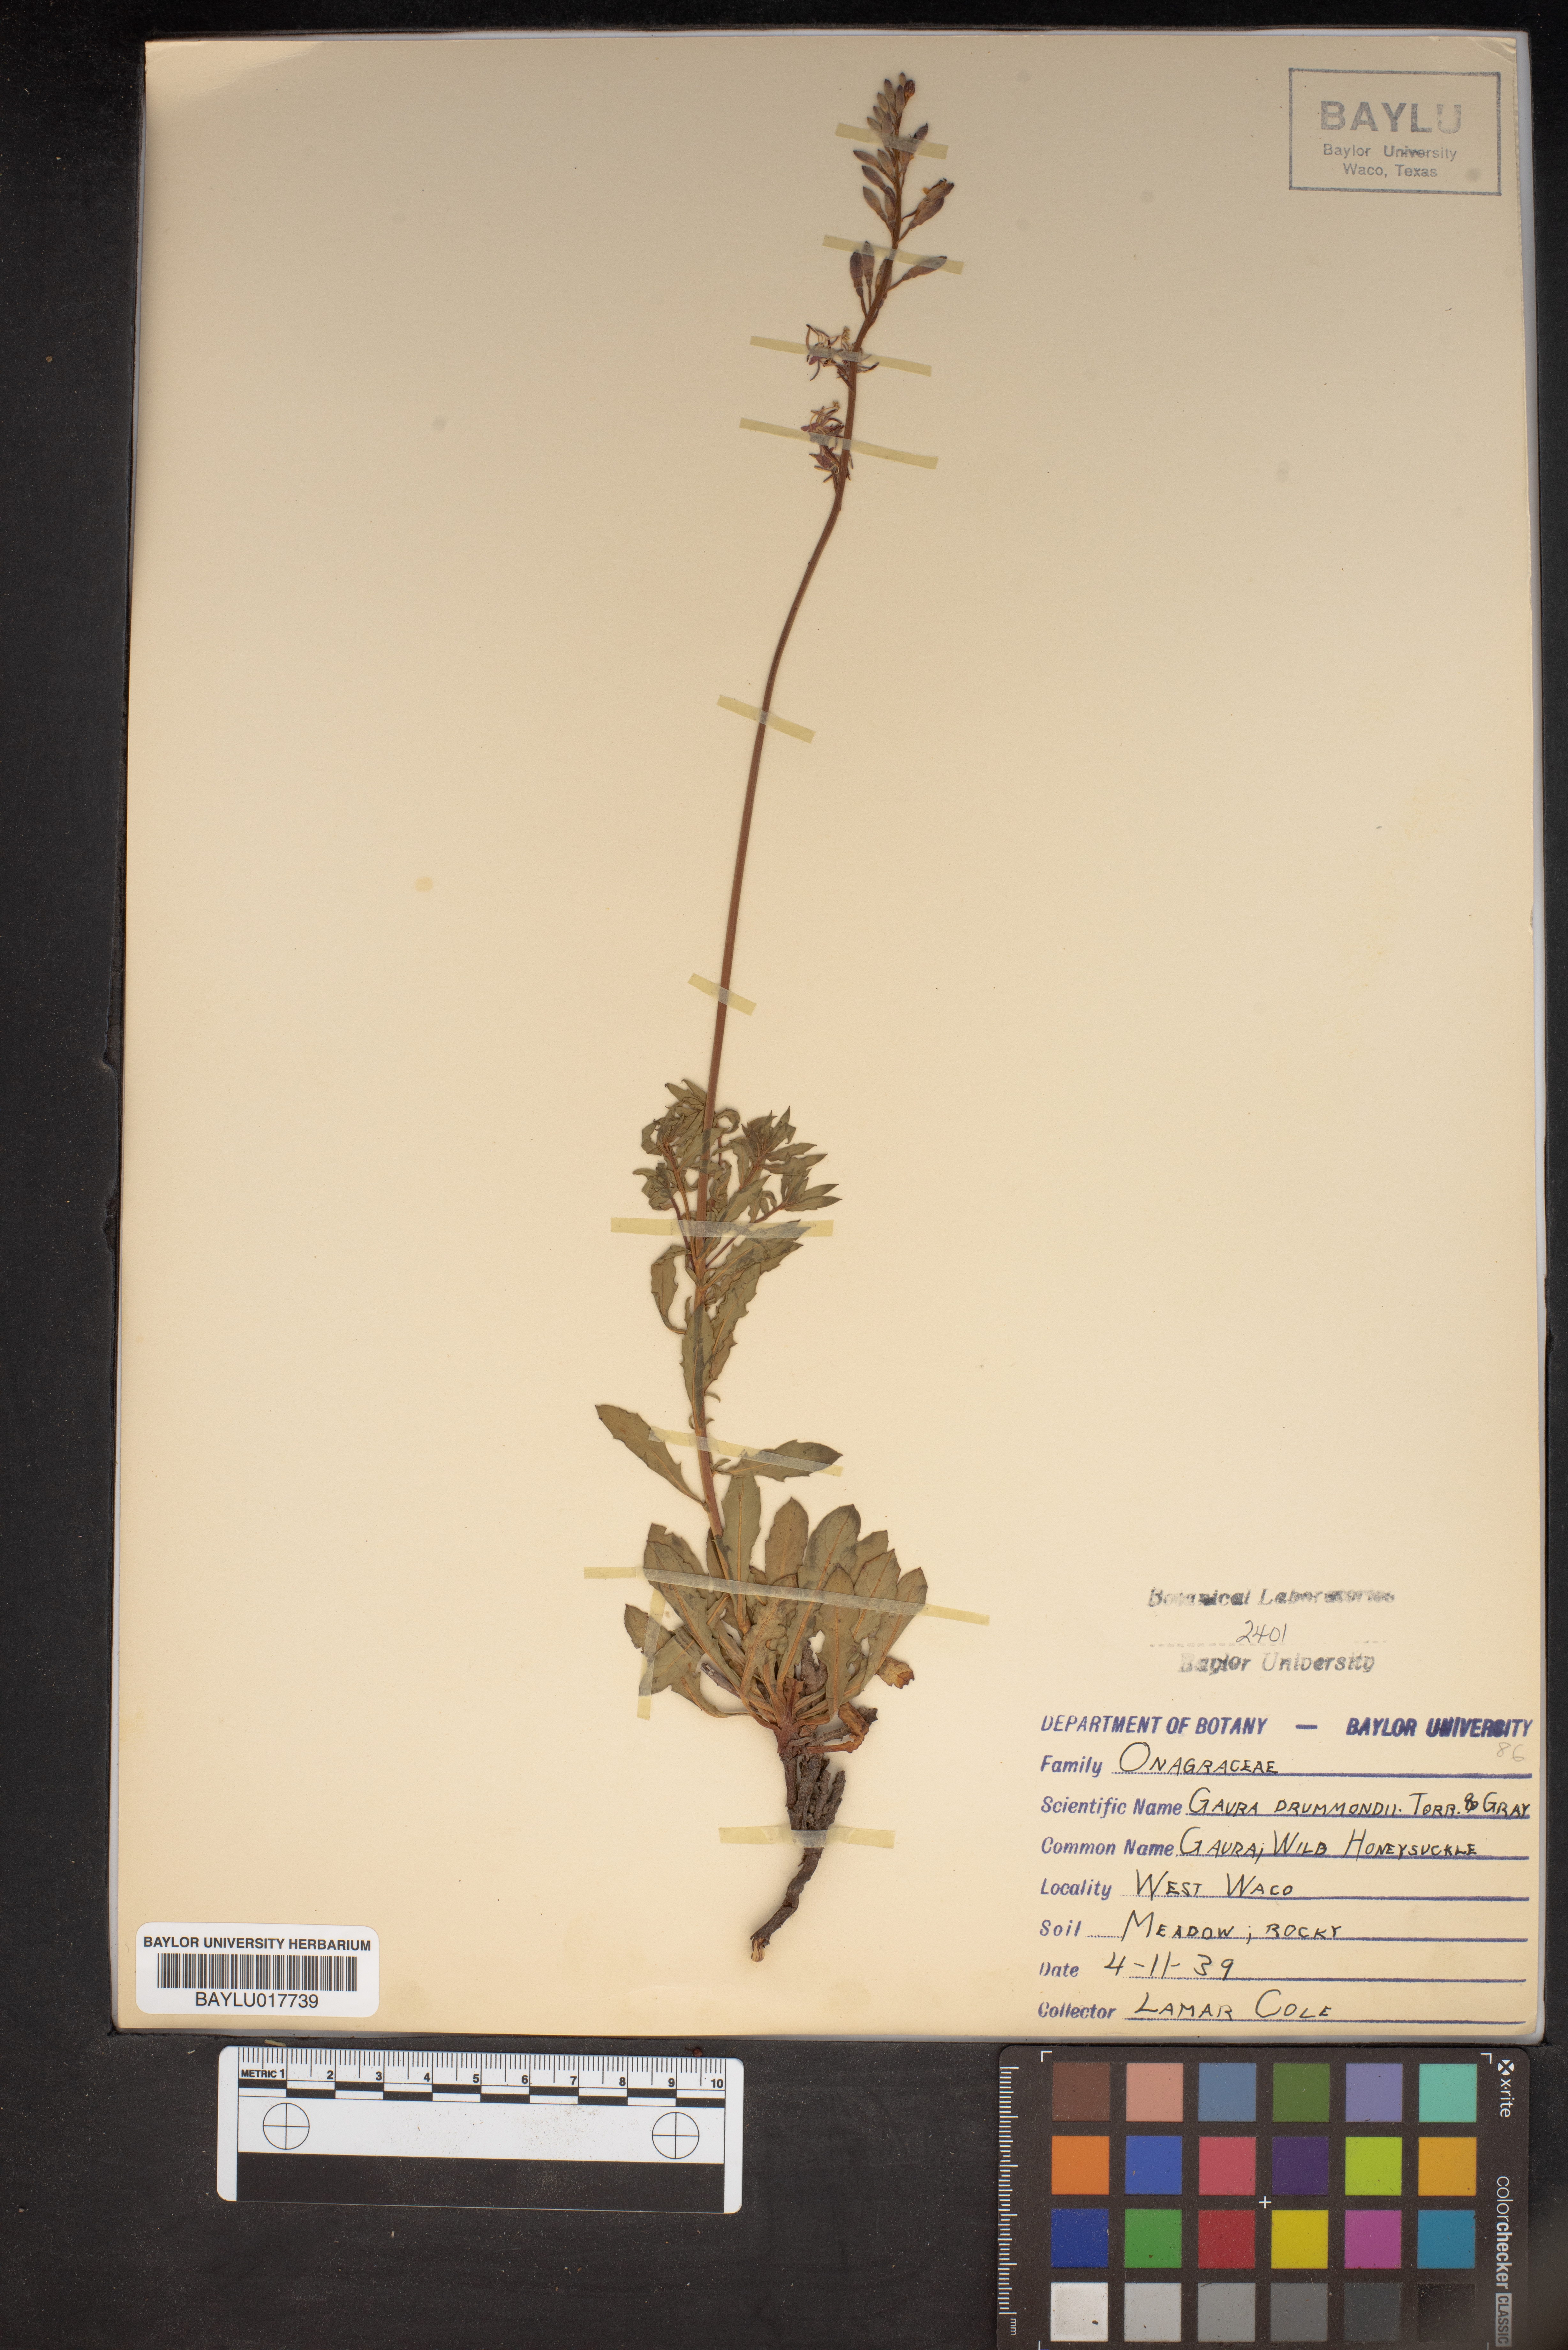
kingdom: Plantae
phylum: Tracheophyta
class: Magnoliopsida
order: Myrtales
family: Onagraceae
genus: Oenothera
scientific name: Oenothera hispida
